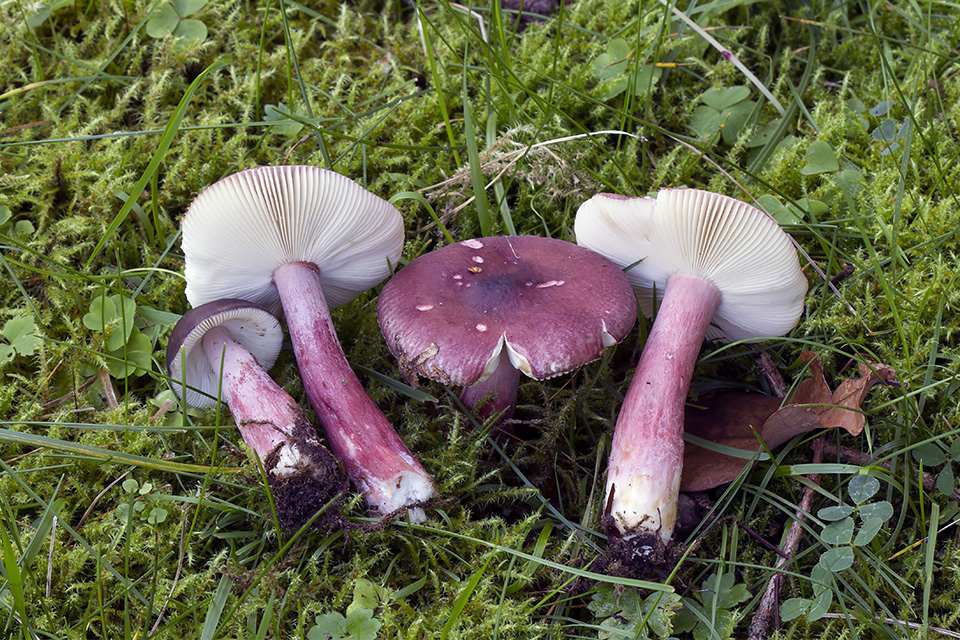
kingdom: Fungi
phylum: Basidiomycota
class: Agaricomycetes
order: Russulales
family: Russulaceae
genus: Russula
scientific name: Russula queletii
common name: Quélets skørhat
